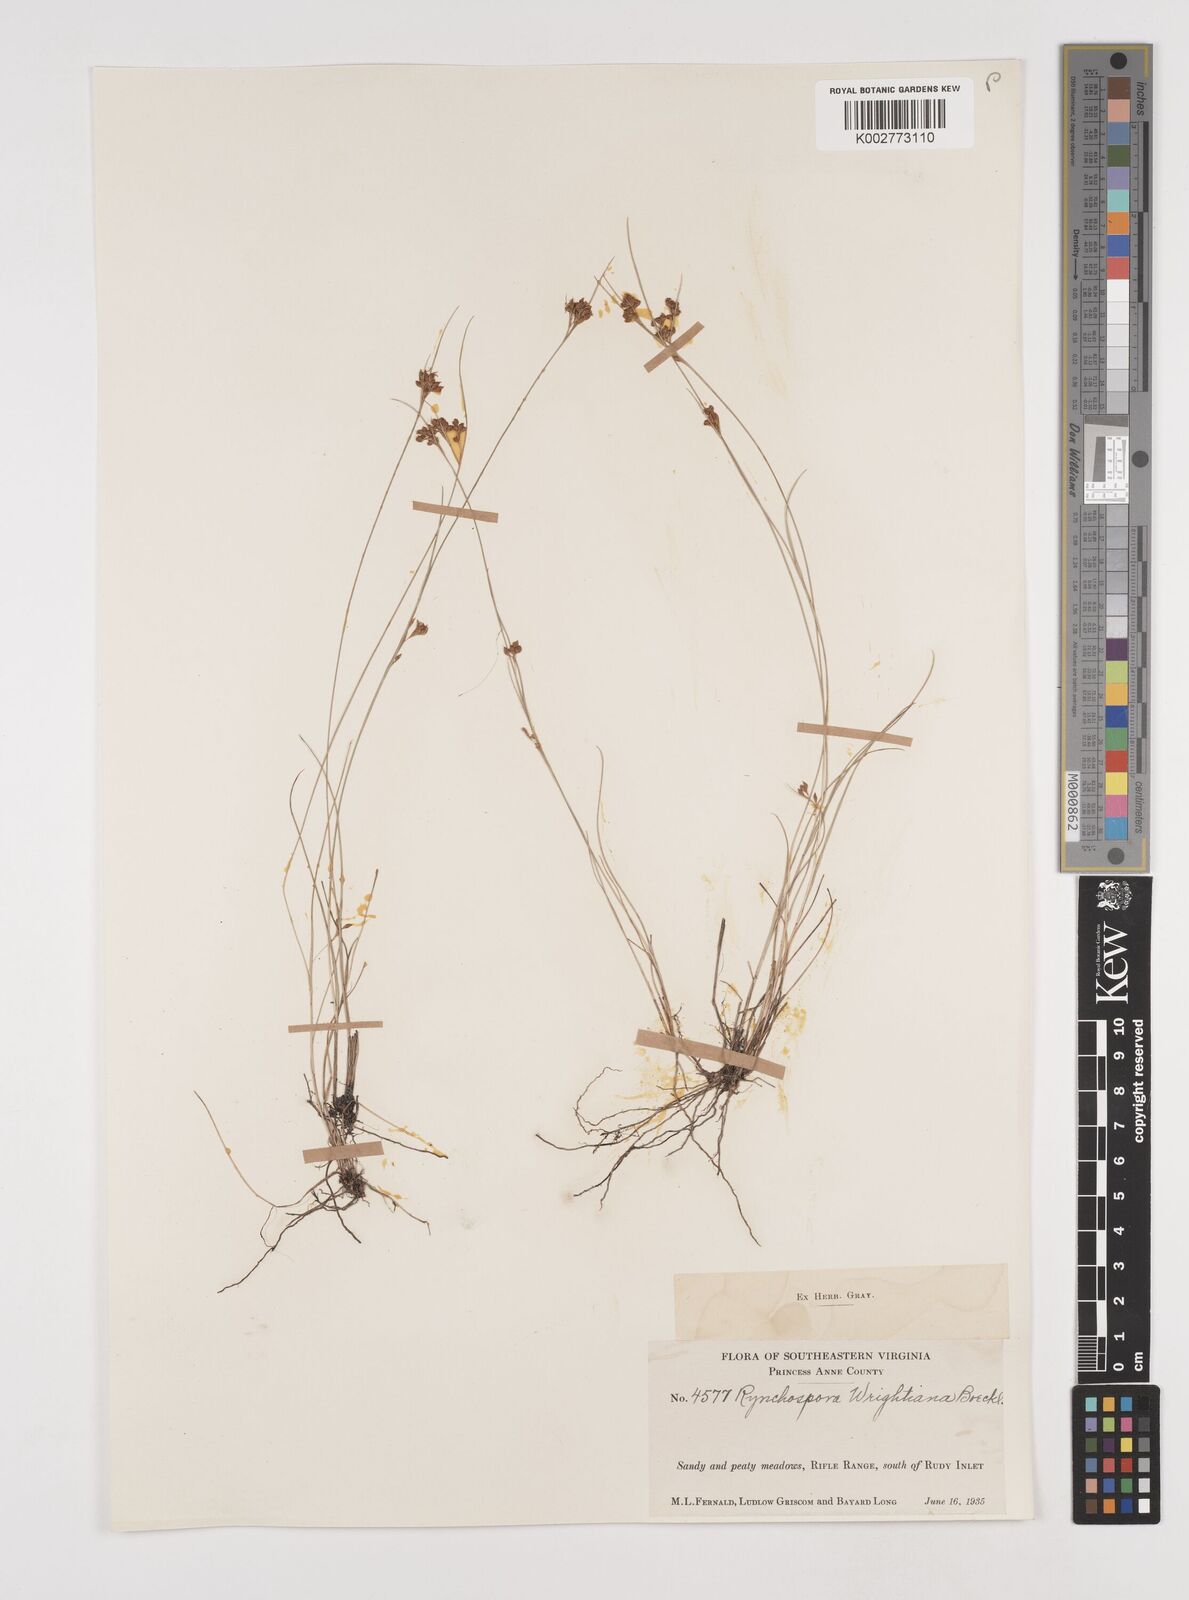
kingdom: Plantae
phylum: Tracheophyta
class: Liliopsida
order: Poales
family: Cyperaceae
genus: Rhynchospora
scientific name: Rhynchospora wrightiana
